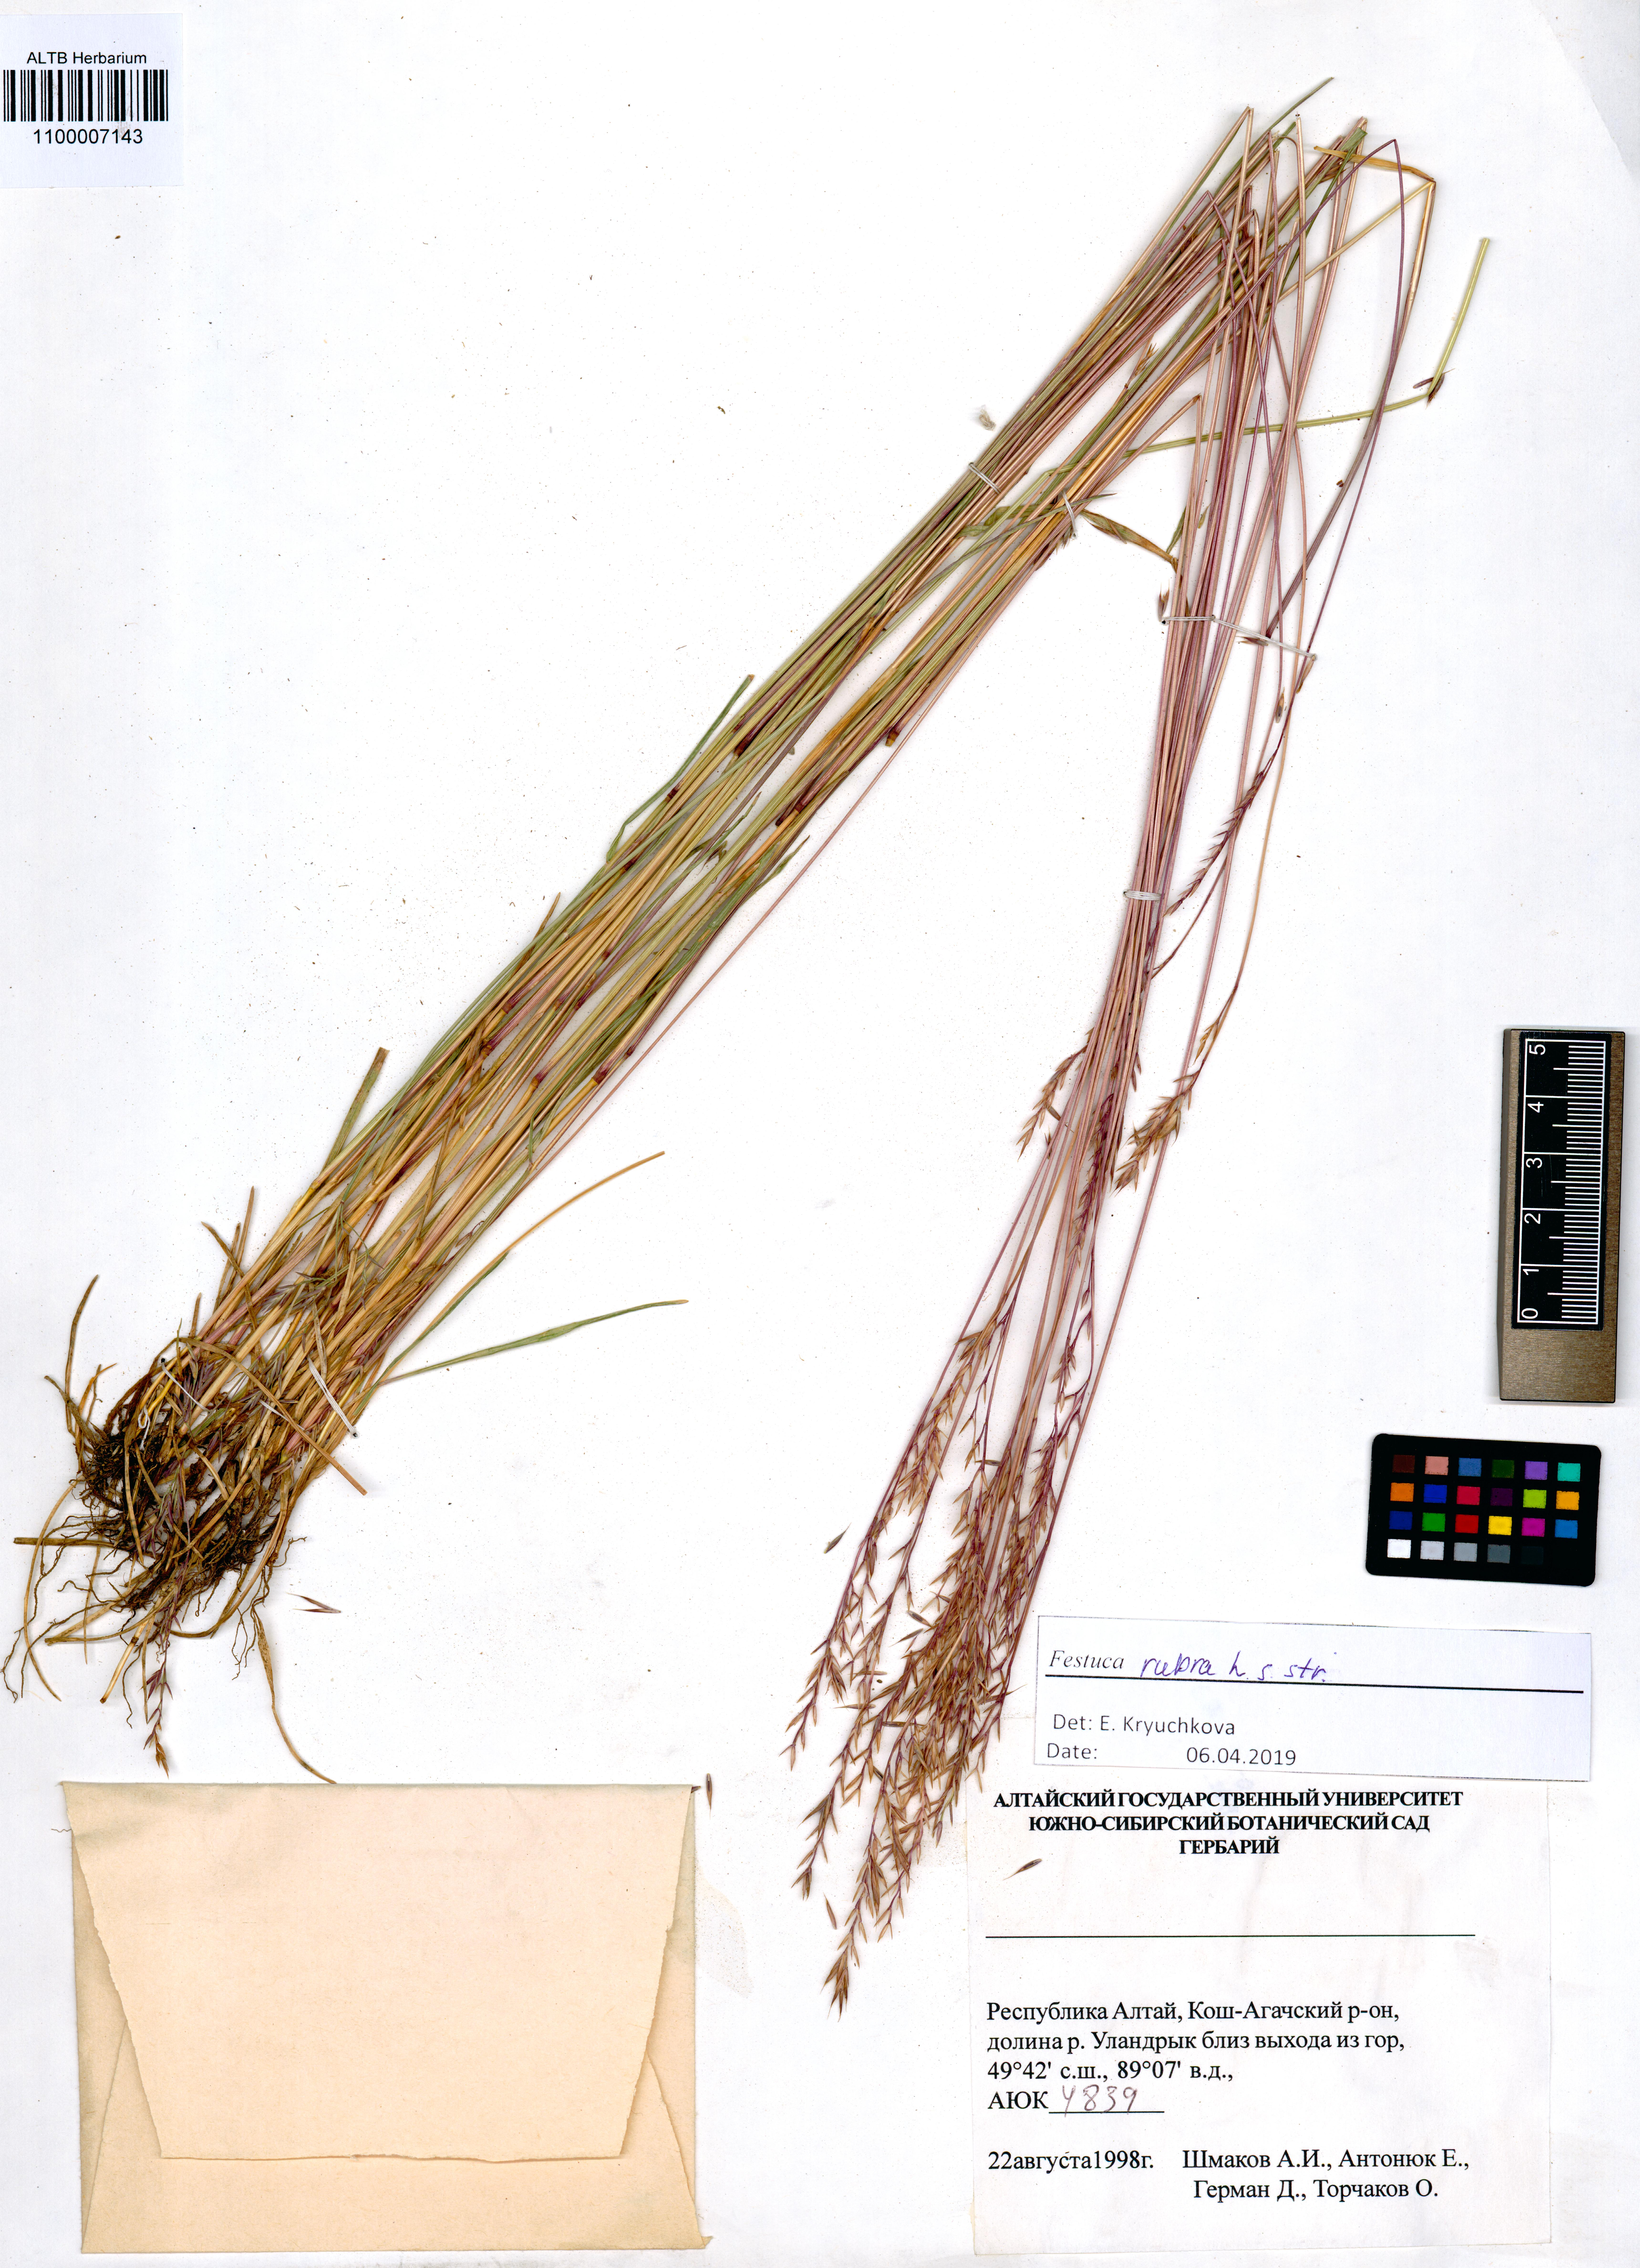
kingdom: Plantae
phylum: Tracheophyta
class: Liliopsida
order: Poales
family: Poaceae
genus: Festuca
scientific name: Festuca rubra
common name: Red fescue
